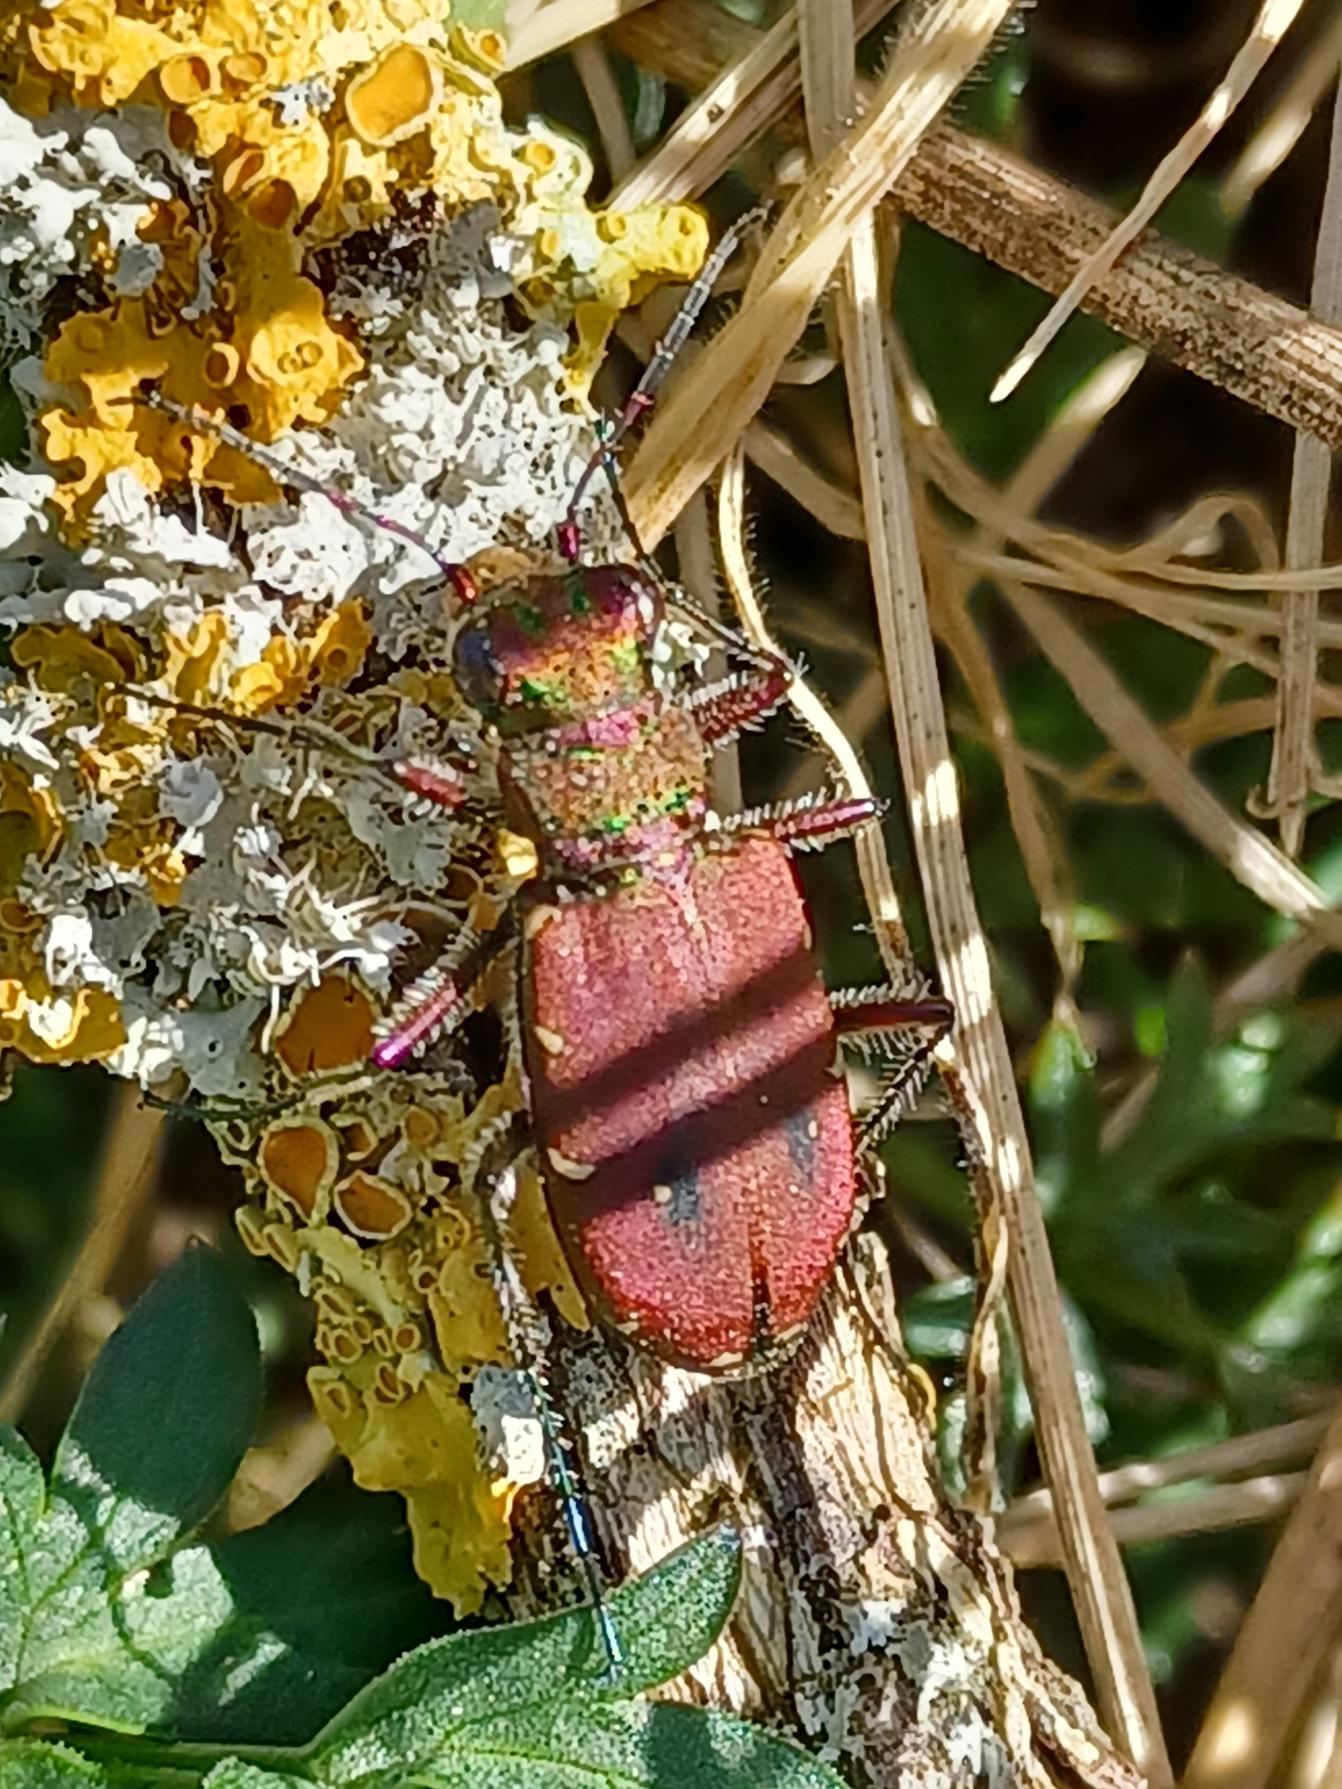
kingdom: Animalia
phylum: Arthropoda
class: Insecta
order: Coleoptera
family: Carabidae
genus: Cicindela
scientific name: Cicindela campestris
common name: Grøn sandspringer
